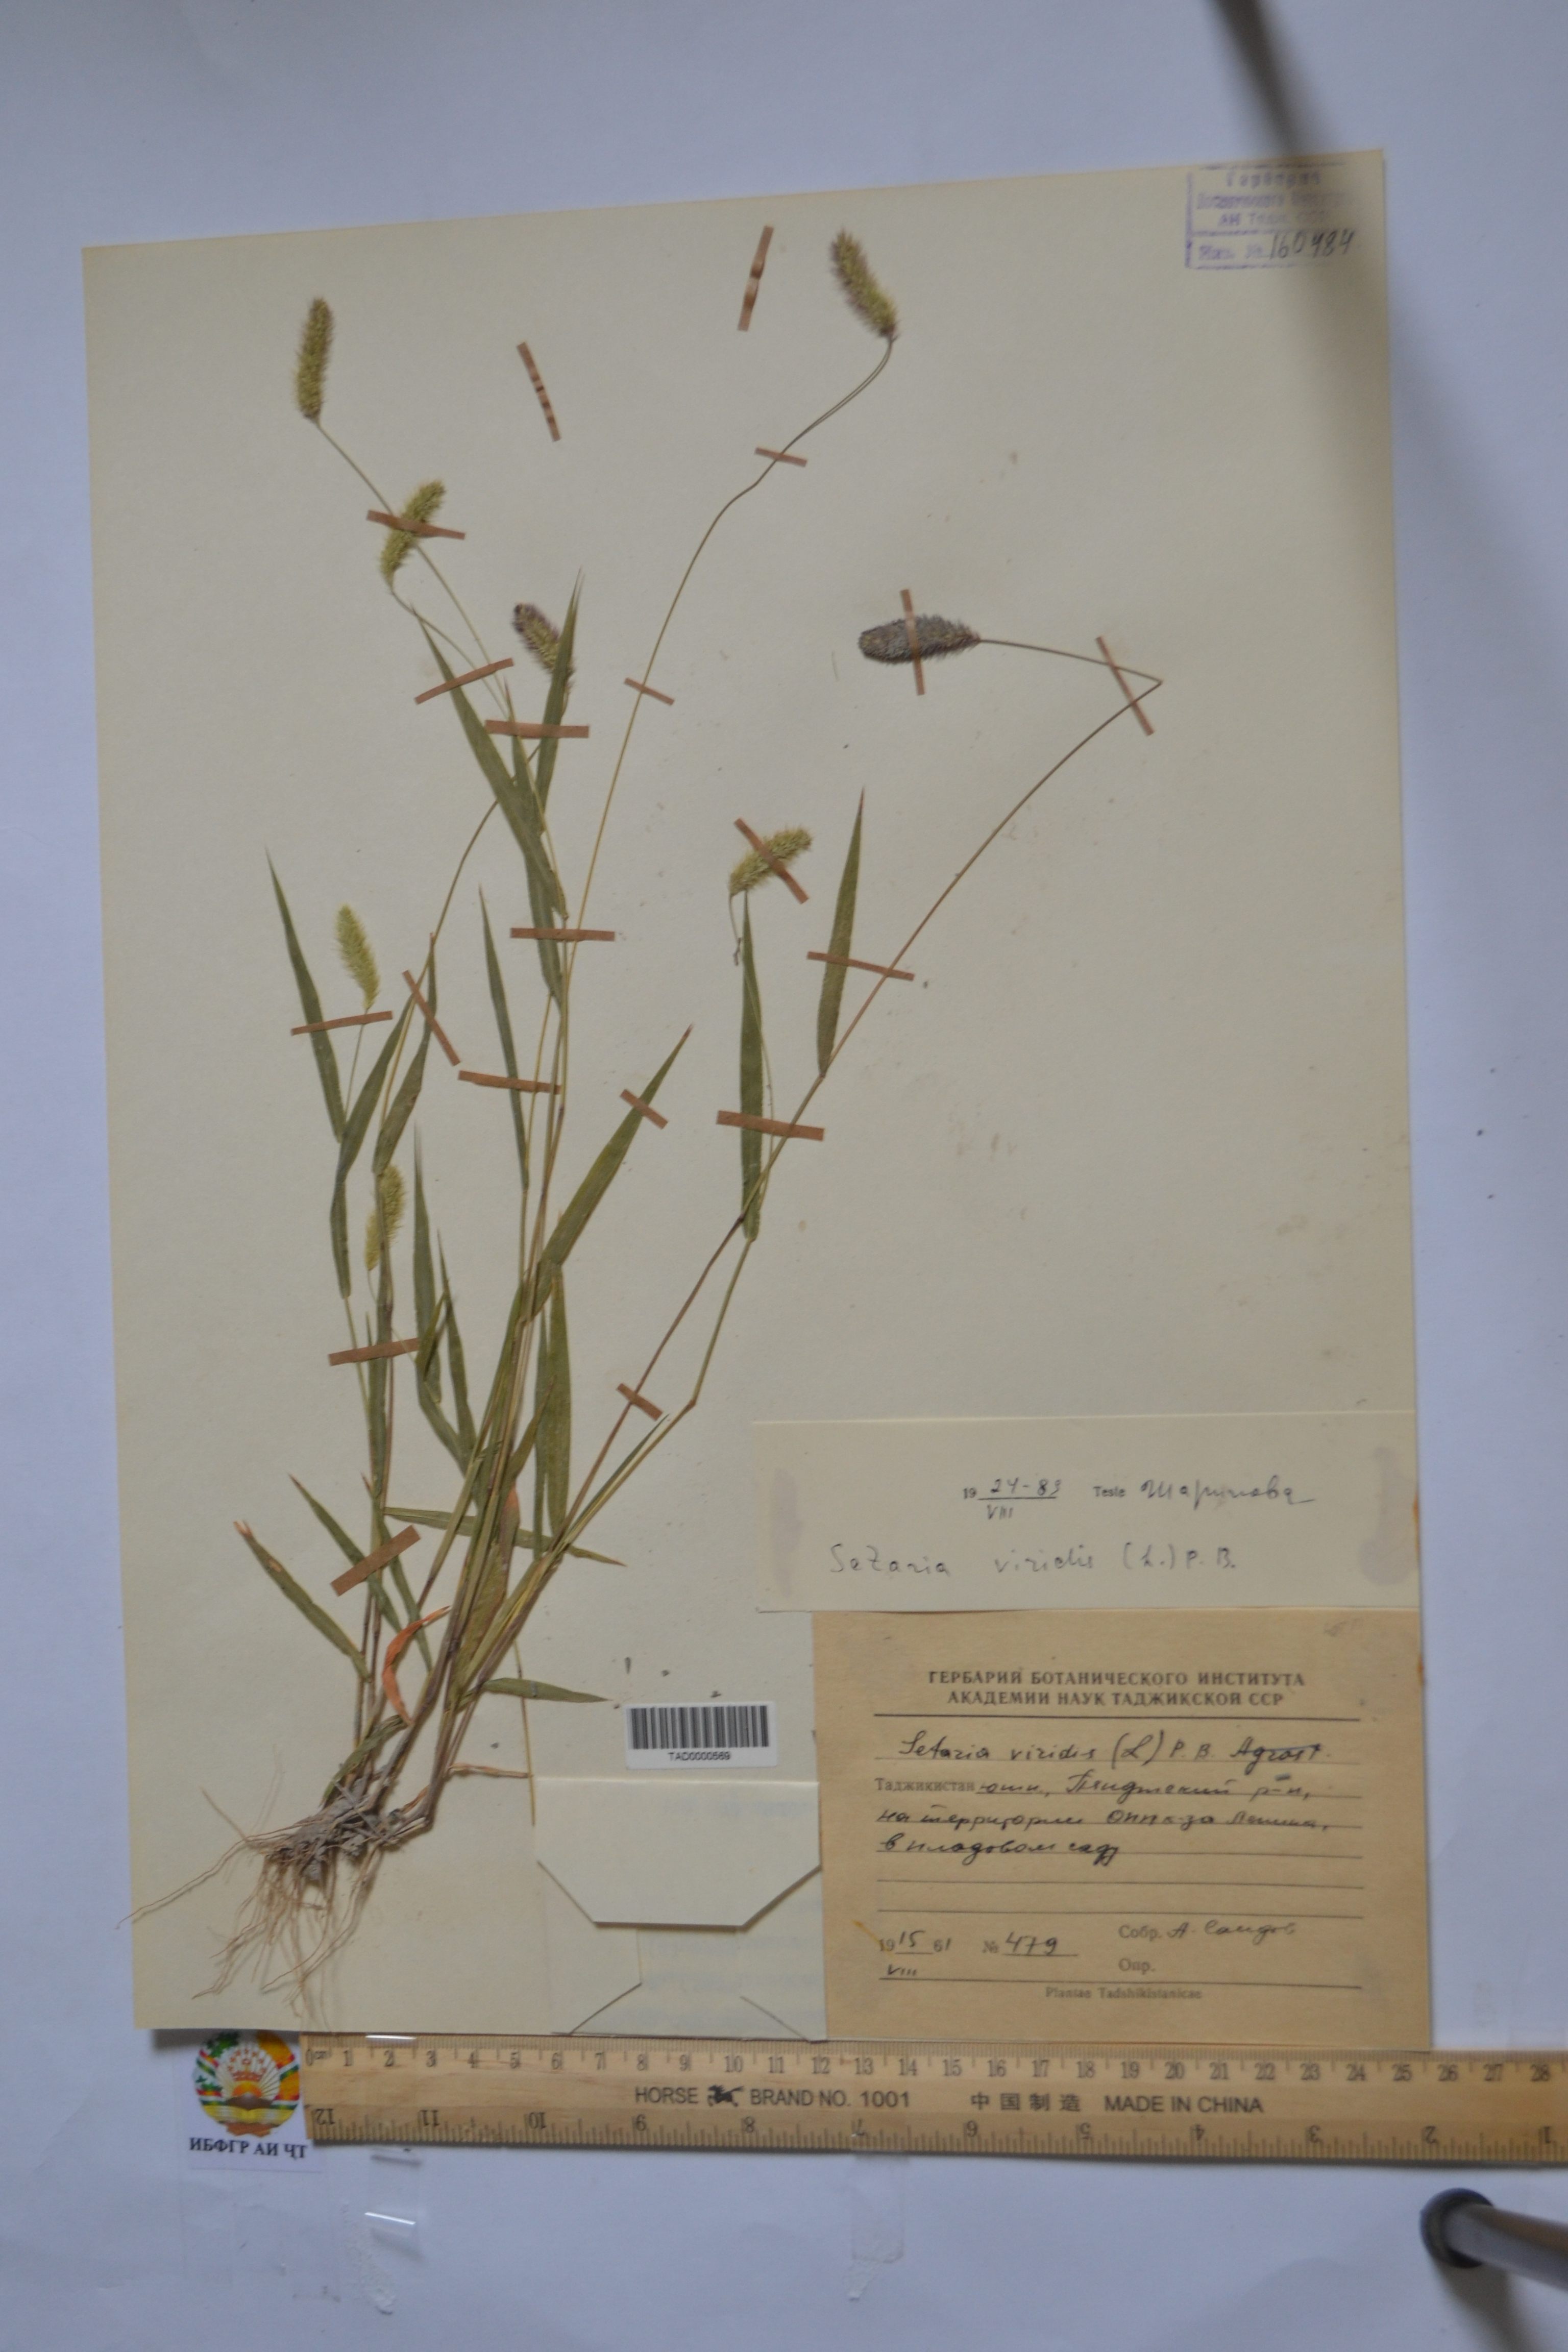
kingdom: Plantae
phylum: Tracheophyta
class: Liliopsida
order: Poales
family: Poaceae
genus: Setaria
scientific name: Setaria viridis
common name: Green bristlegrass
